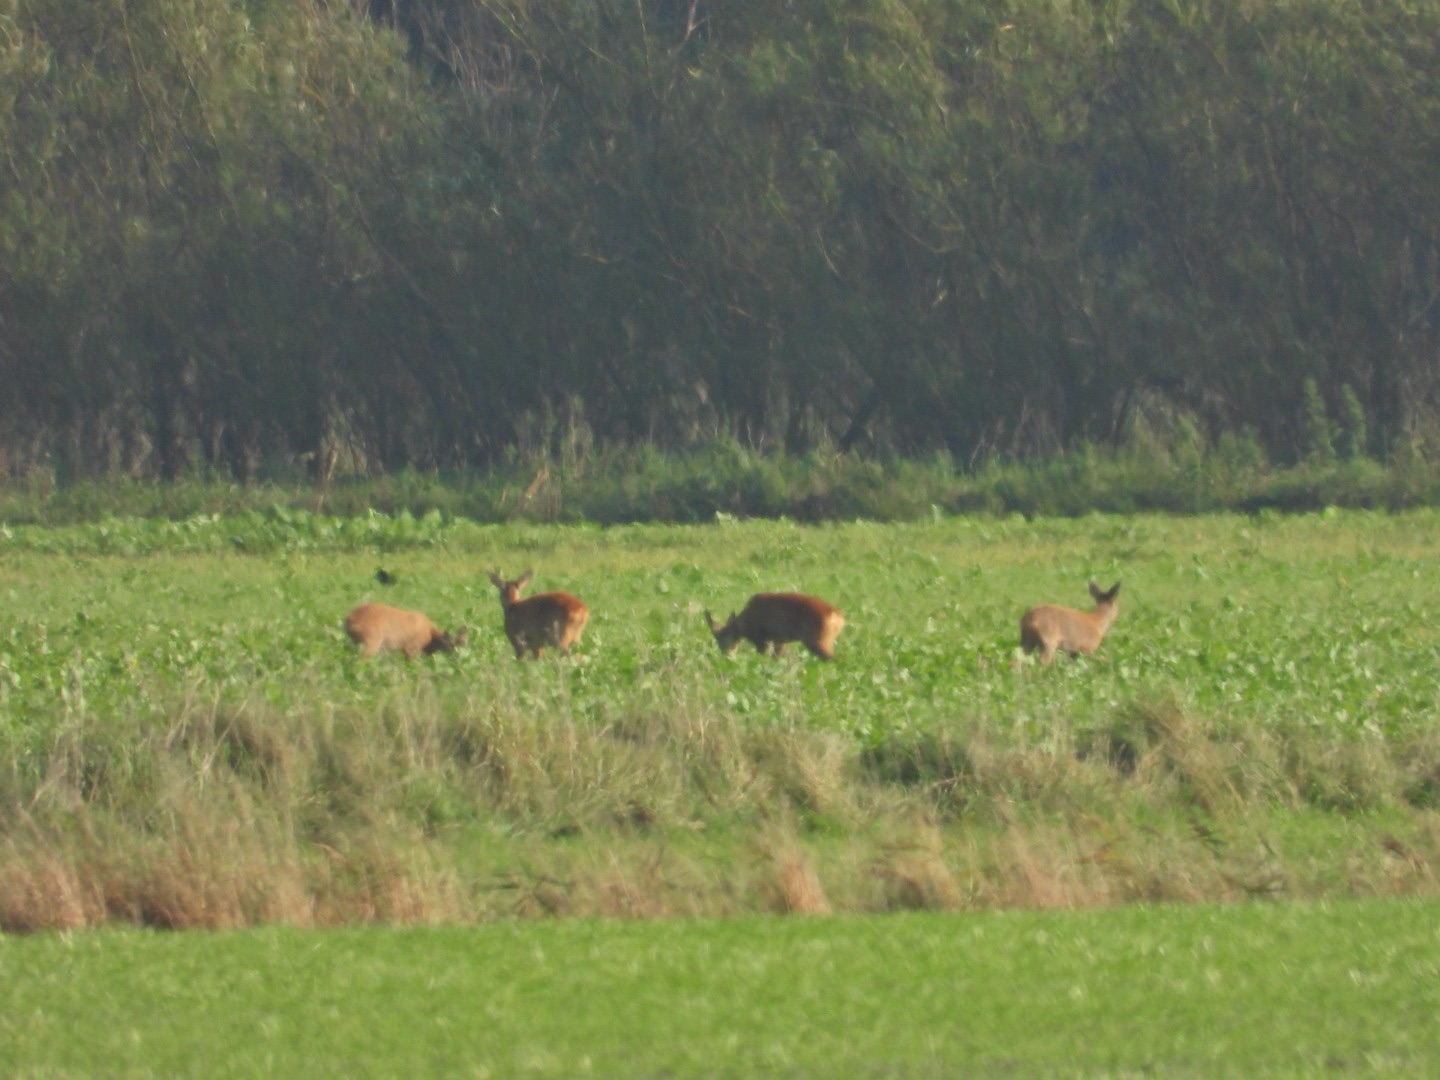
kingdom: Animalia
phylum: Chordata
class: Mammalia
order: Artiodactyla
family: Cervidae
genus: Capreolus
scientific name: Capreolus capreolus
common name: Rådyr
